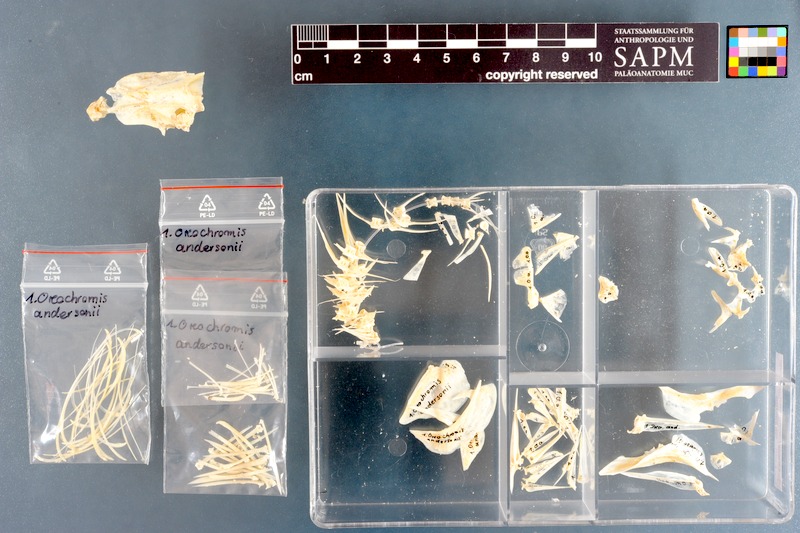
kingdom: Animalia
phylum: Chordata
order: Perciformes
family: Cichlidae
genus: Oreochromis
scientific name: Oreochromis andersonii
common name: Threespot tilapia
